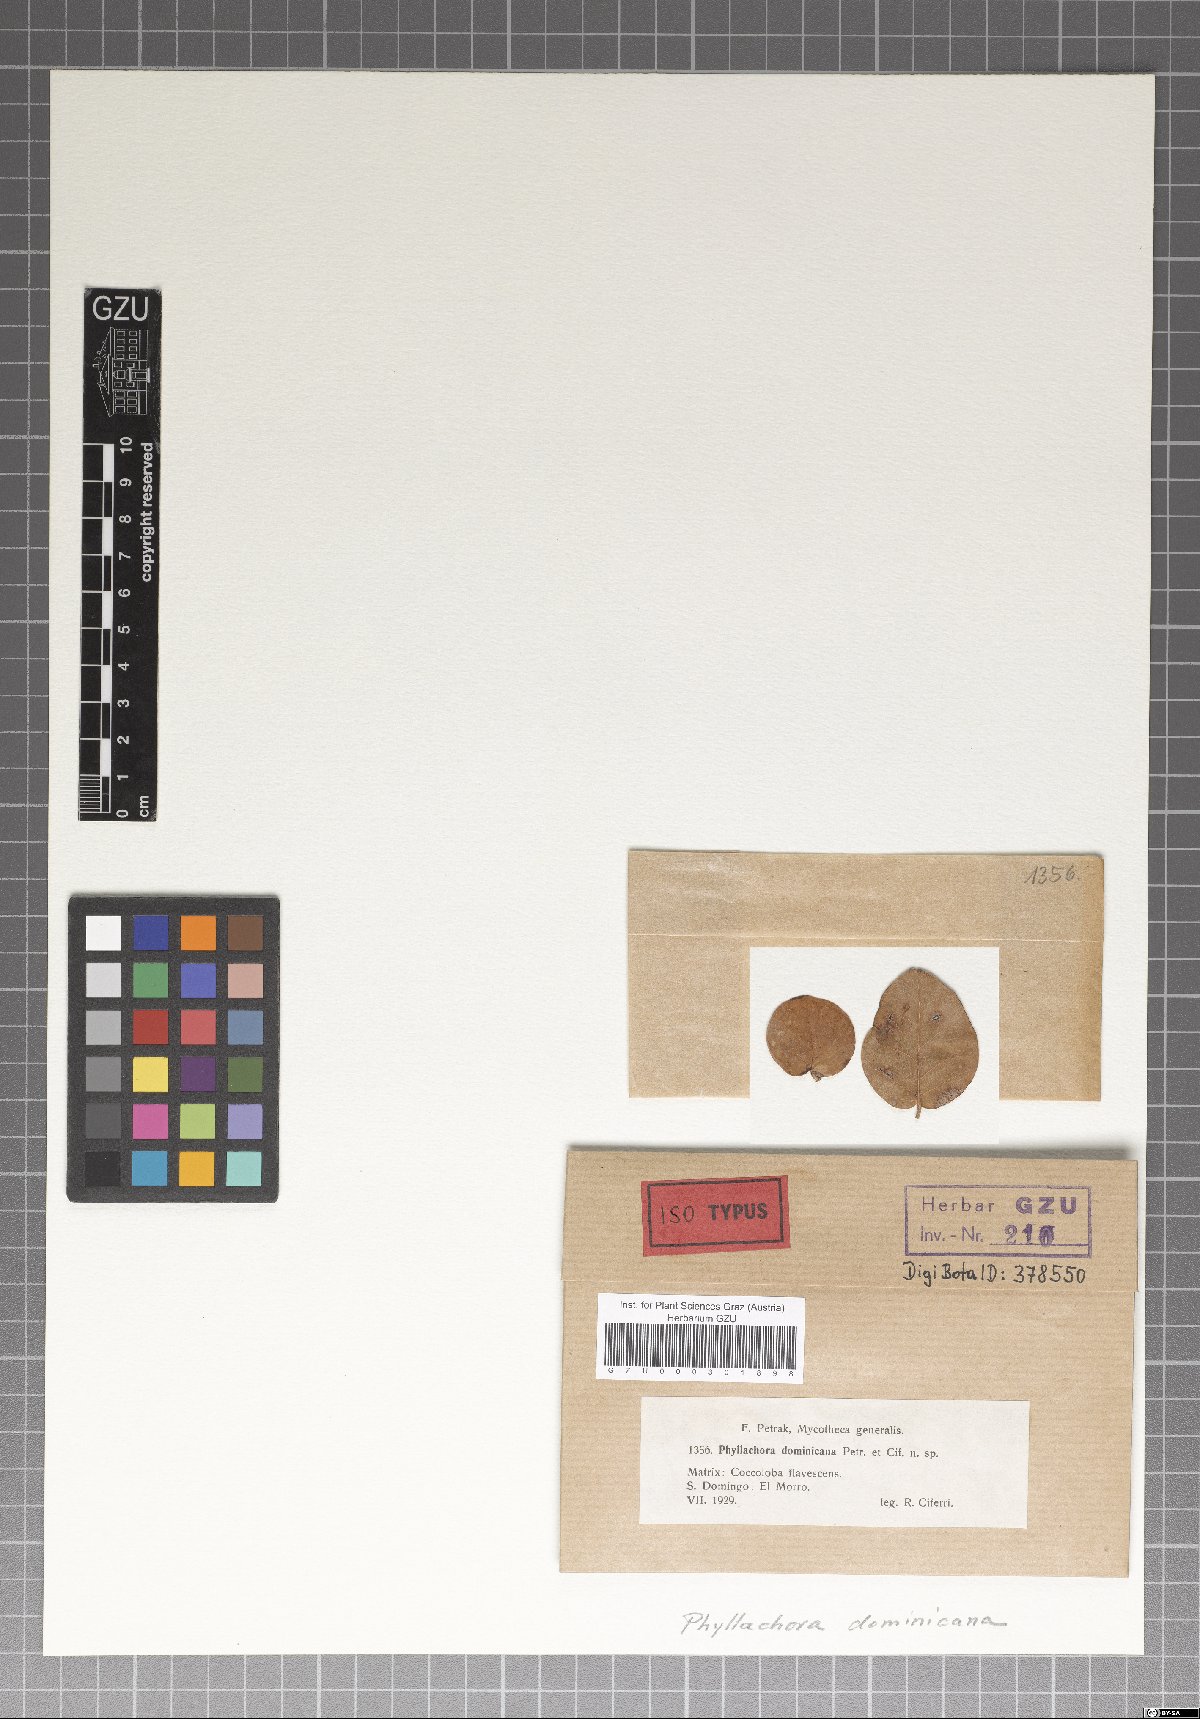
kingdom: Fungi
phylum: Ascomycota
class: Sordariomycetes
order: Phyllachorales
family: Phyllachoraceae
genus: Phyllachora
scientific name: Phyllachora dominicana
